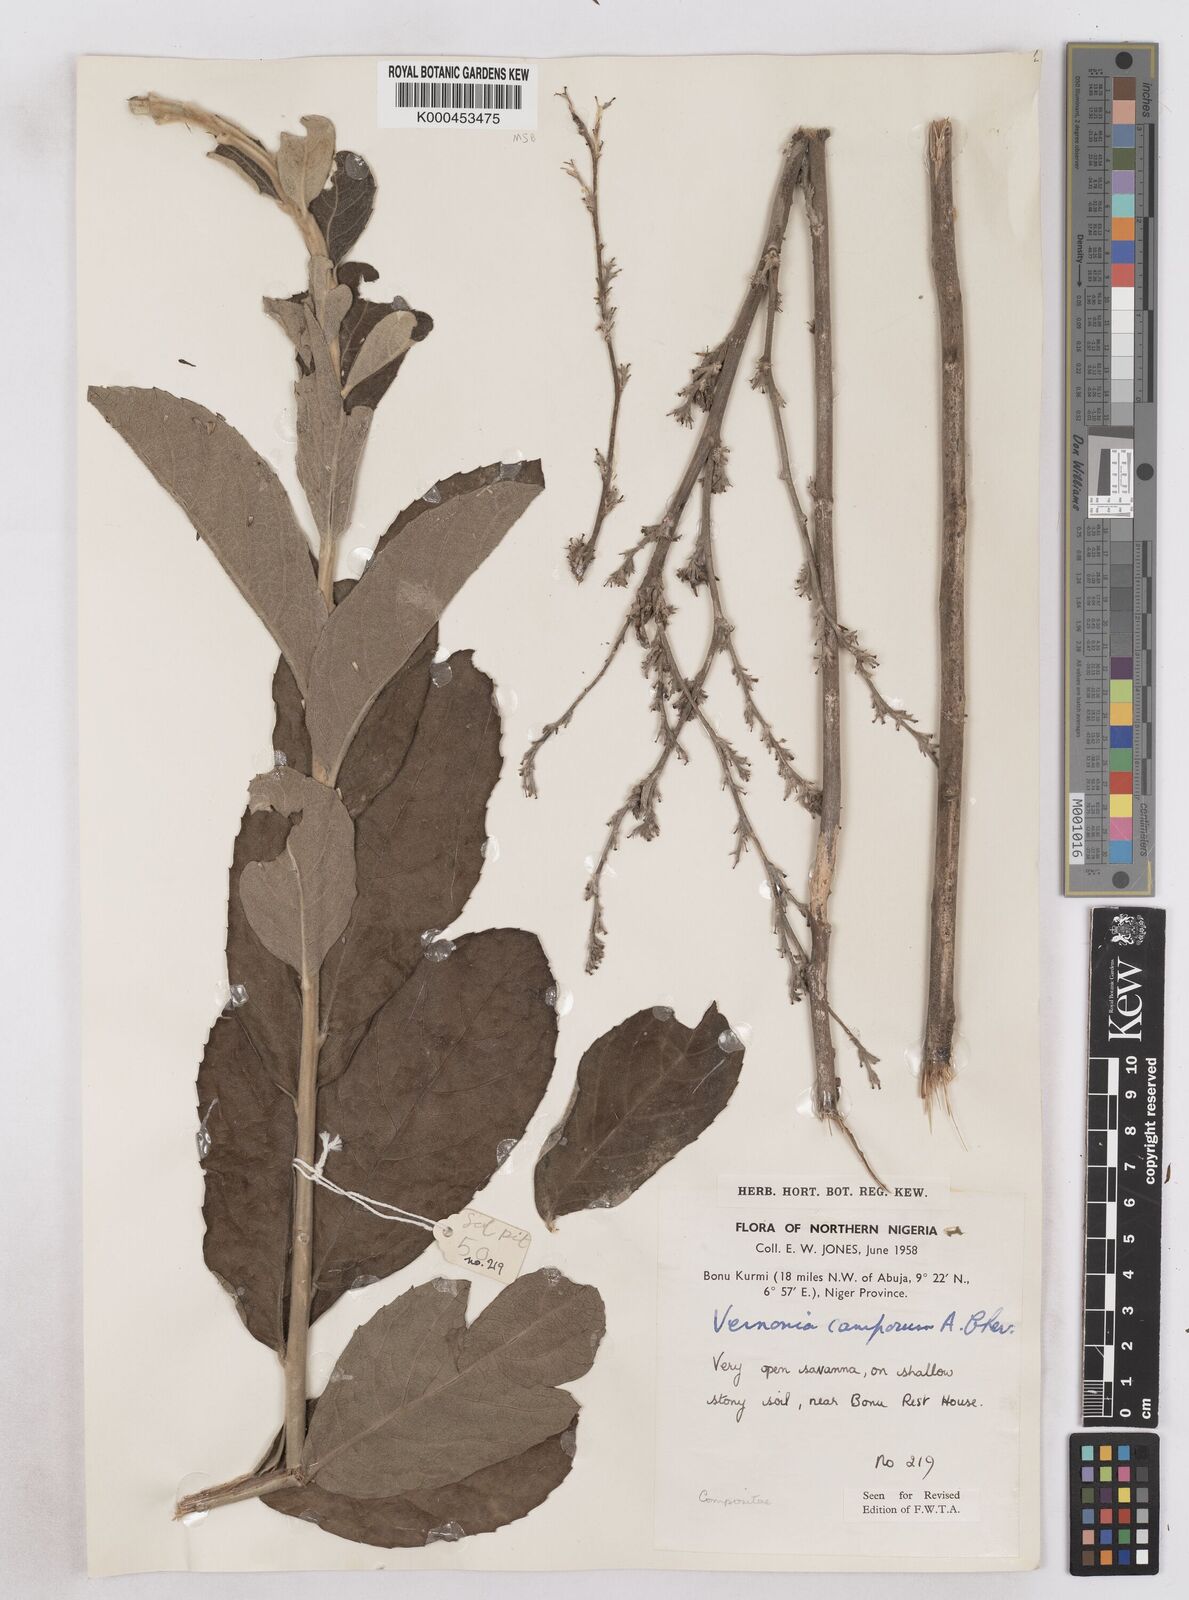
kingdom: Plantae
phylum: Tracheophyta
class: Magnoliopsida
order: Asterales
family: Asteraceae
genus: Vernoniastrum
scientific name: Vernoniastrum camporum
